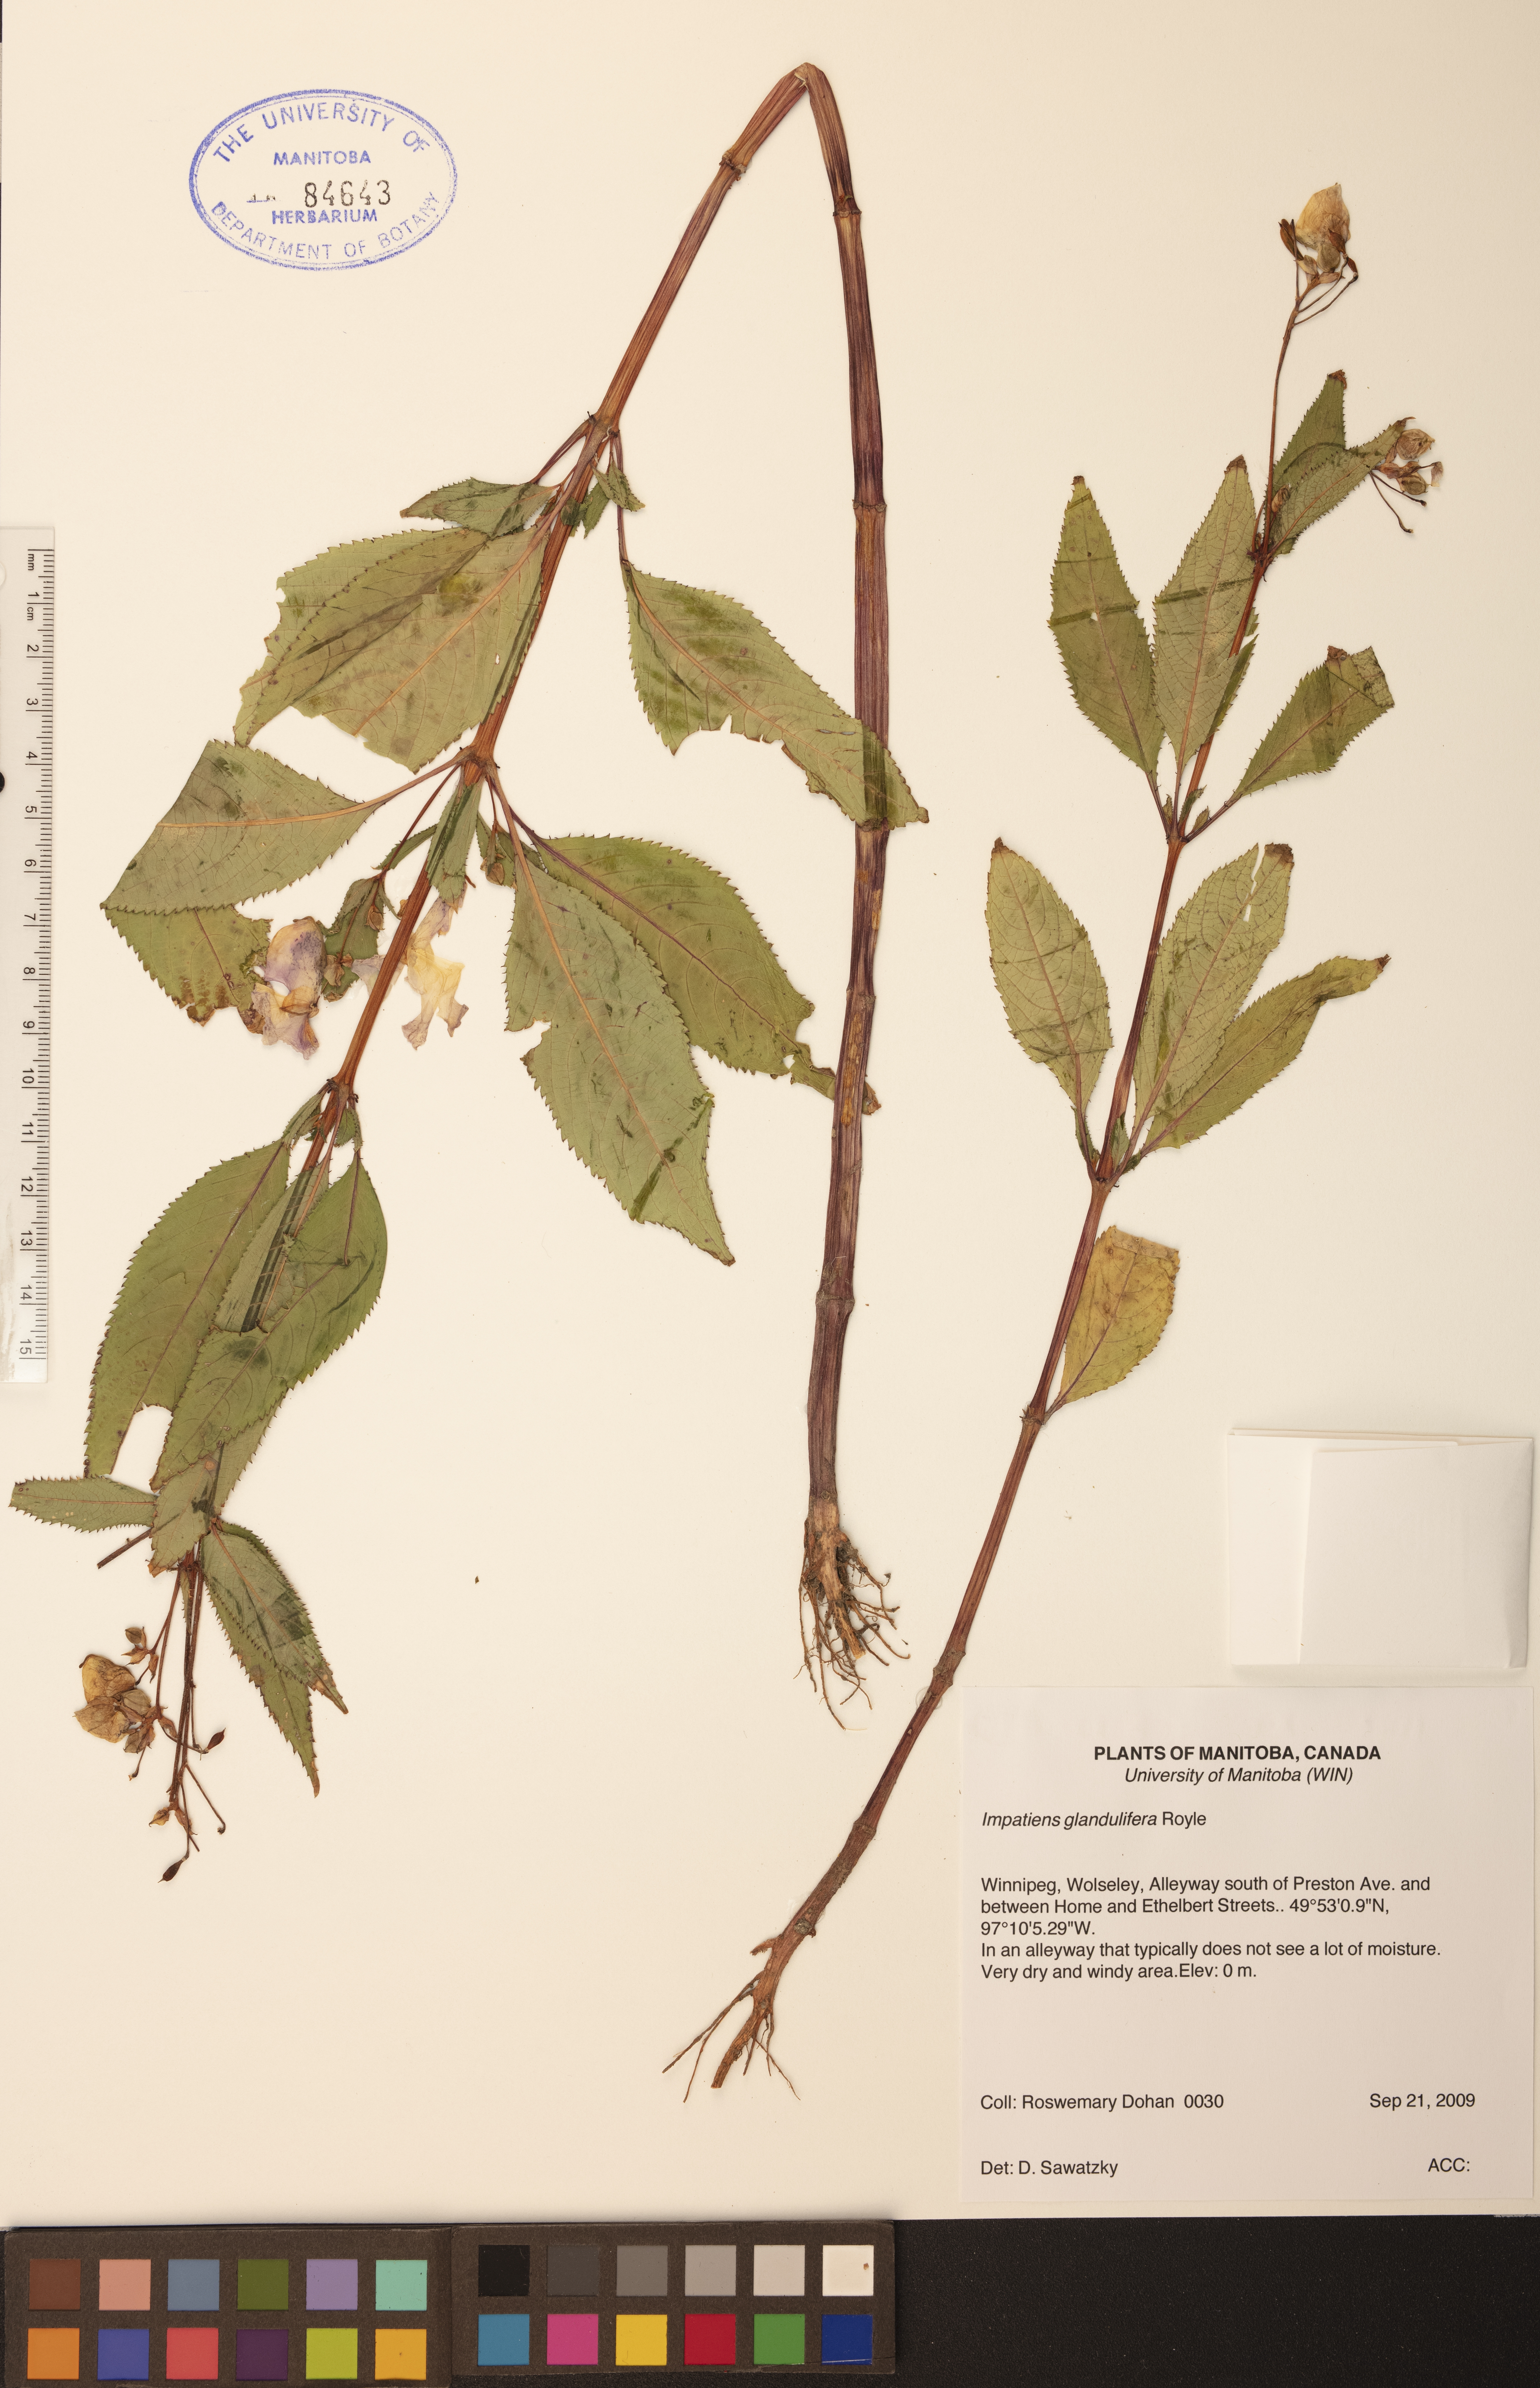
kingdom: Plantae
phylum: Tracheophyta
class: Magnoliopsida
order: Ericales
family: Balsaminaceae
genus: Impatiens
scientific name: Impatiens glandulifera
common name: Himalayan balsam
